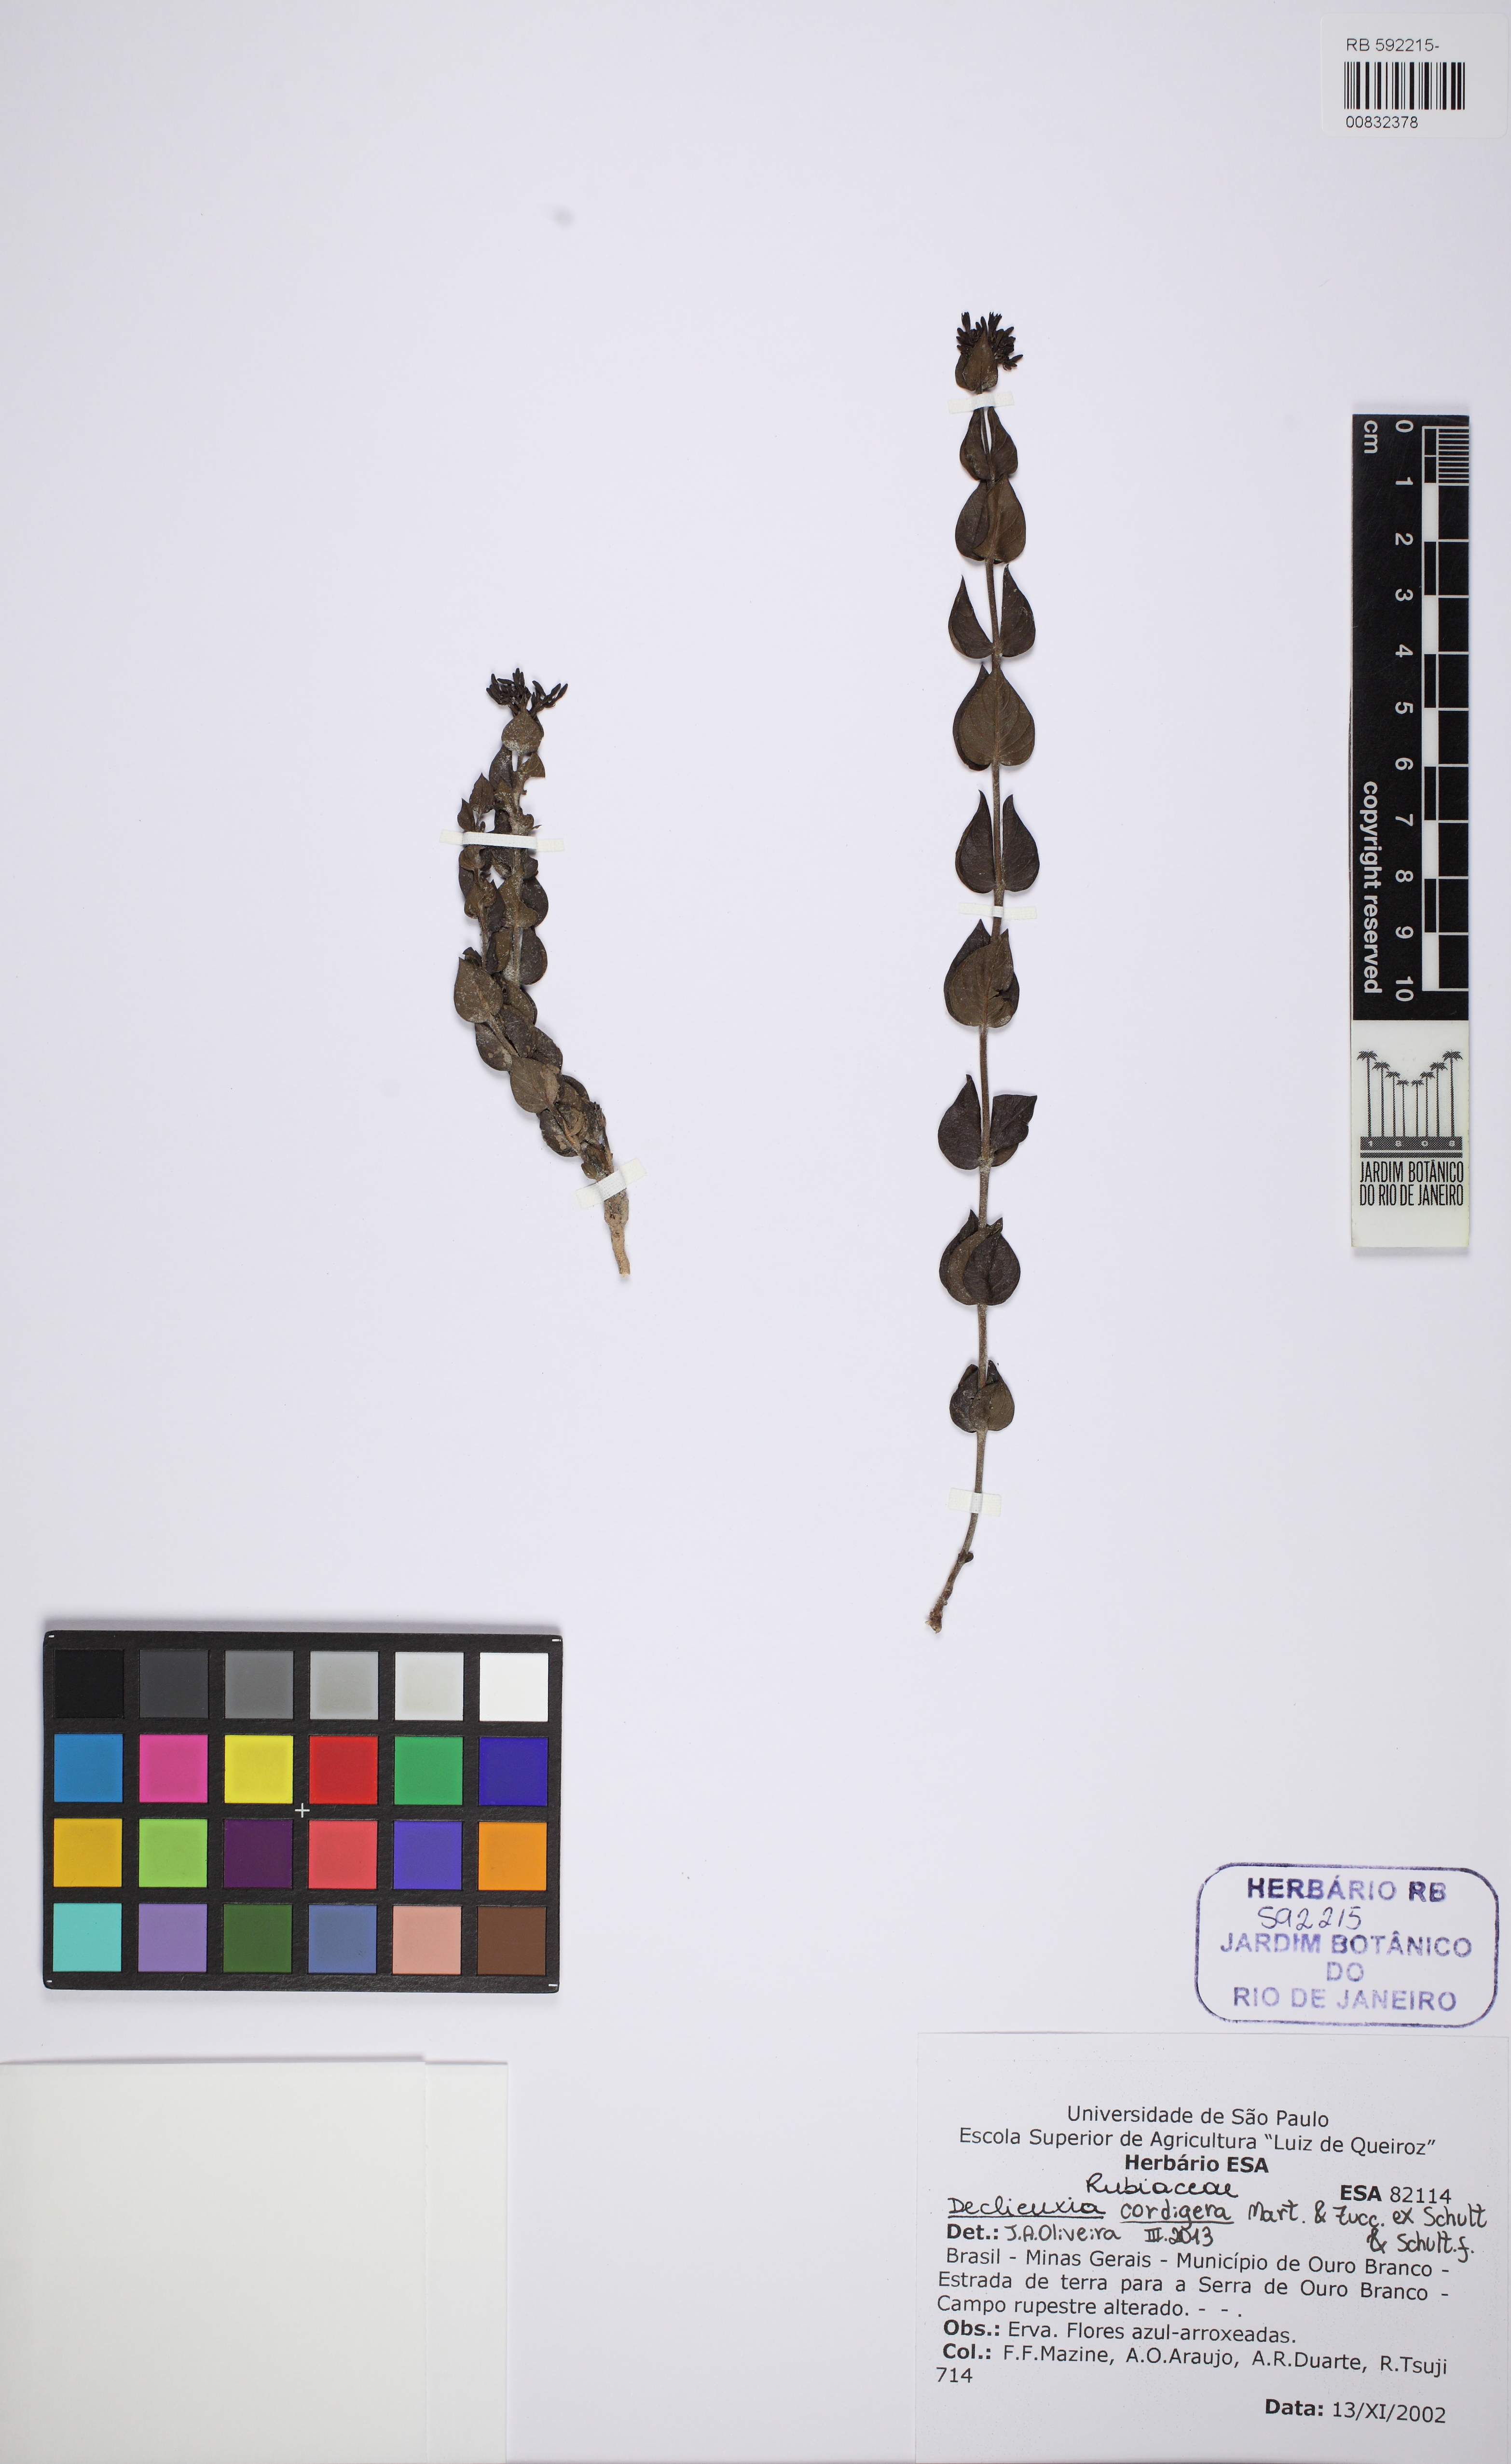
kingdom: Plantae
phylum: Tracheophyta
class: Magnoliopsida
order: Gentianales
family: Rubiaceae
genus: Declieuxia
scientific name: Declieuxia cordigera
